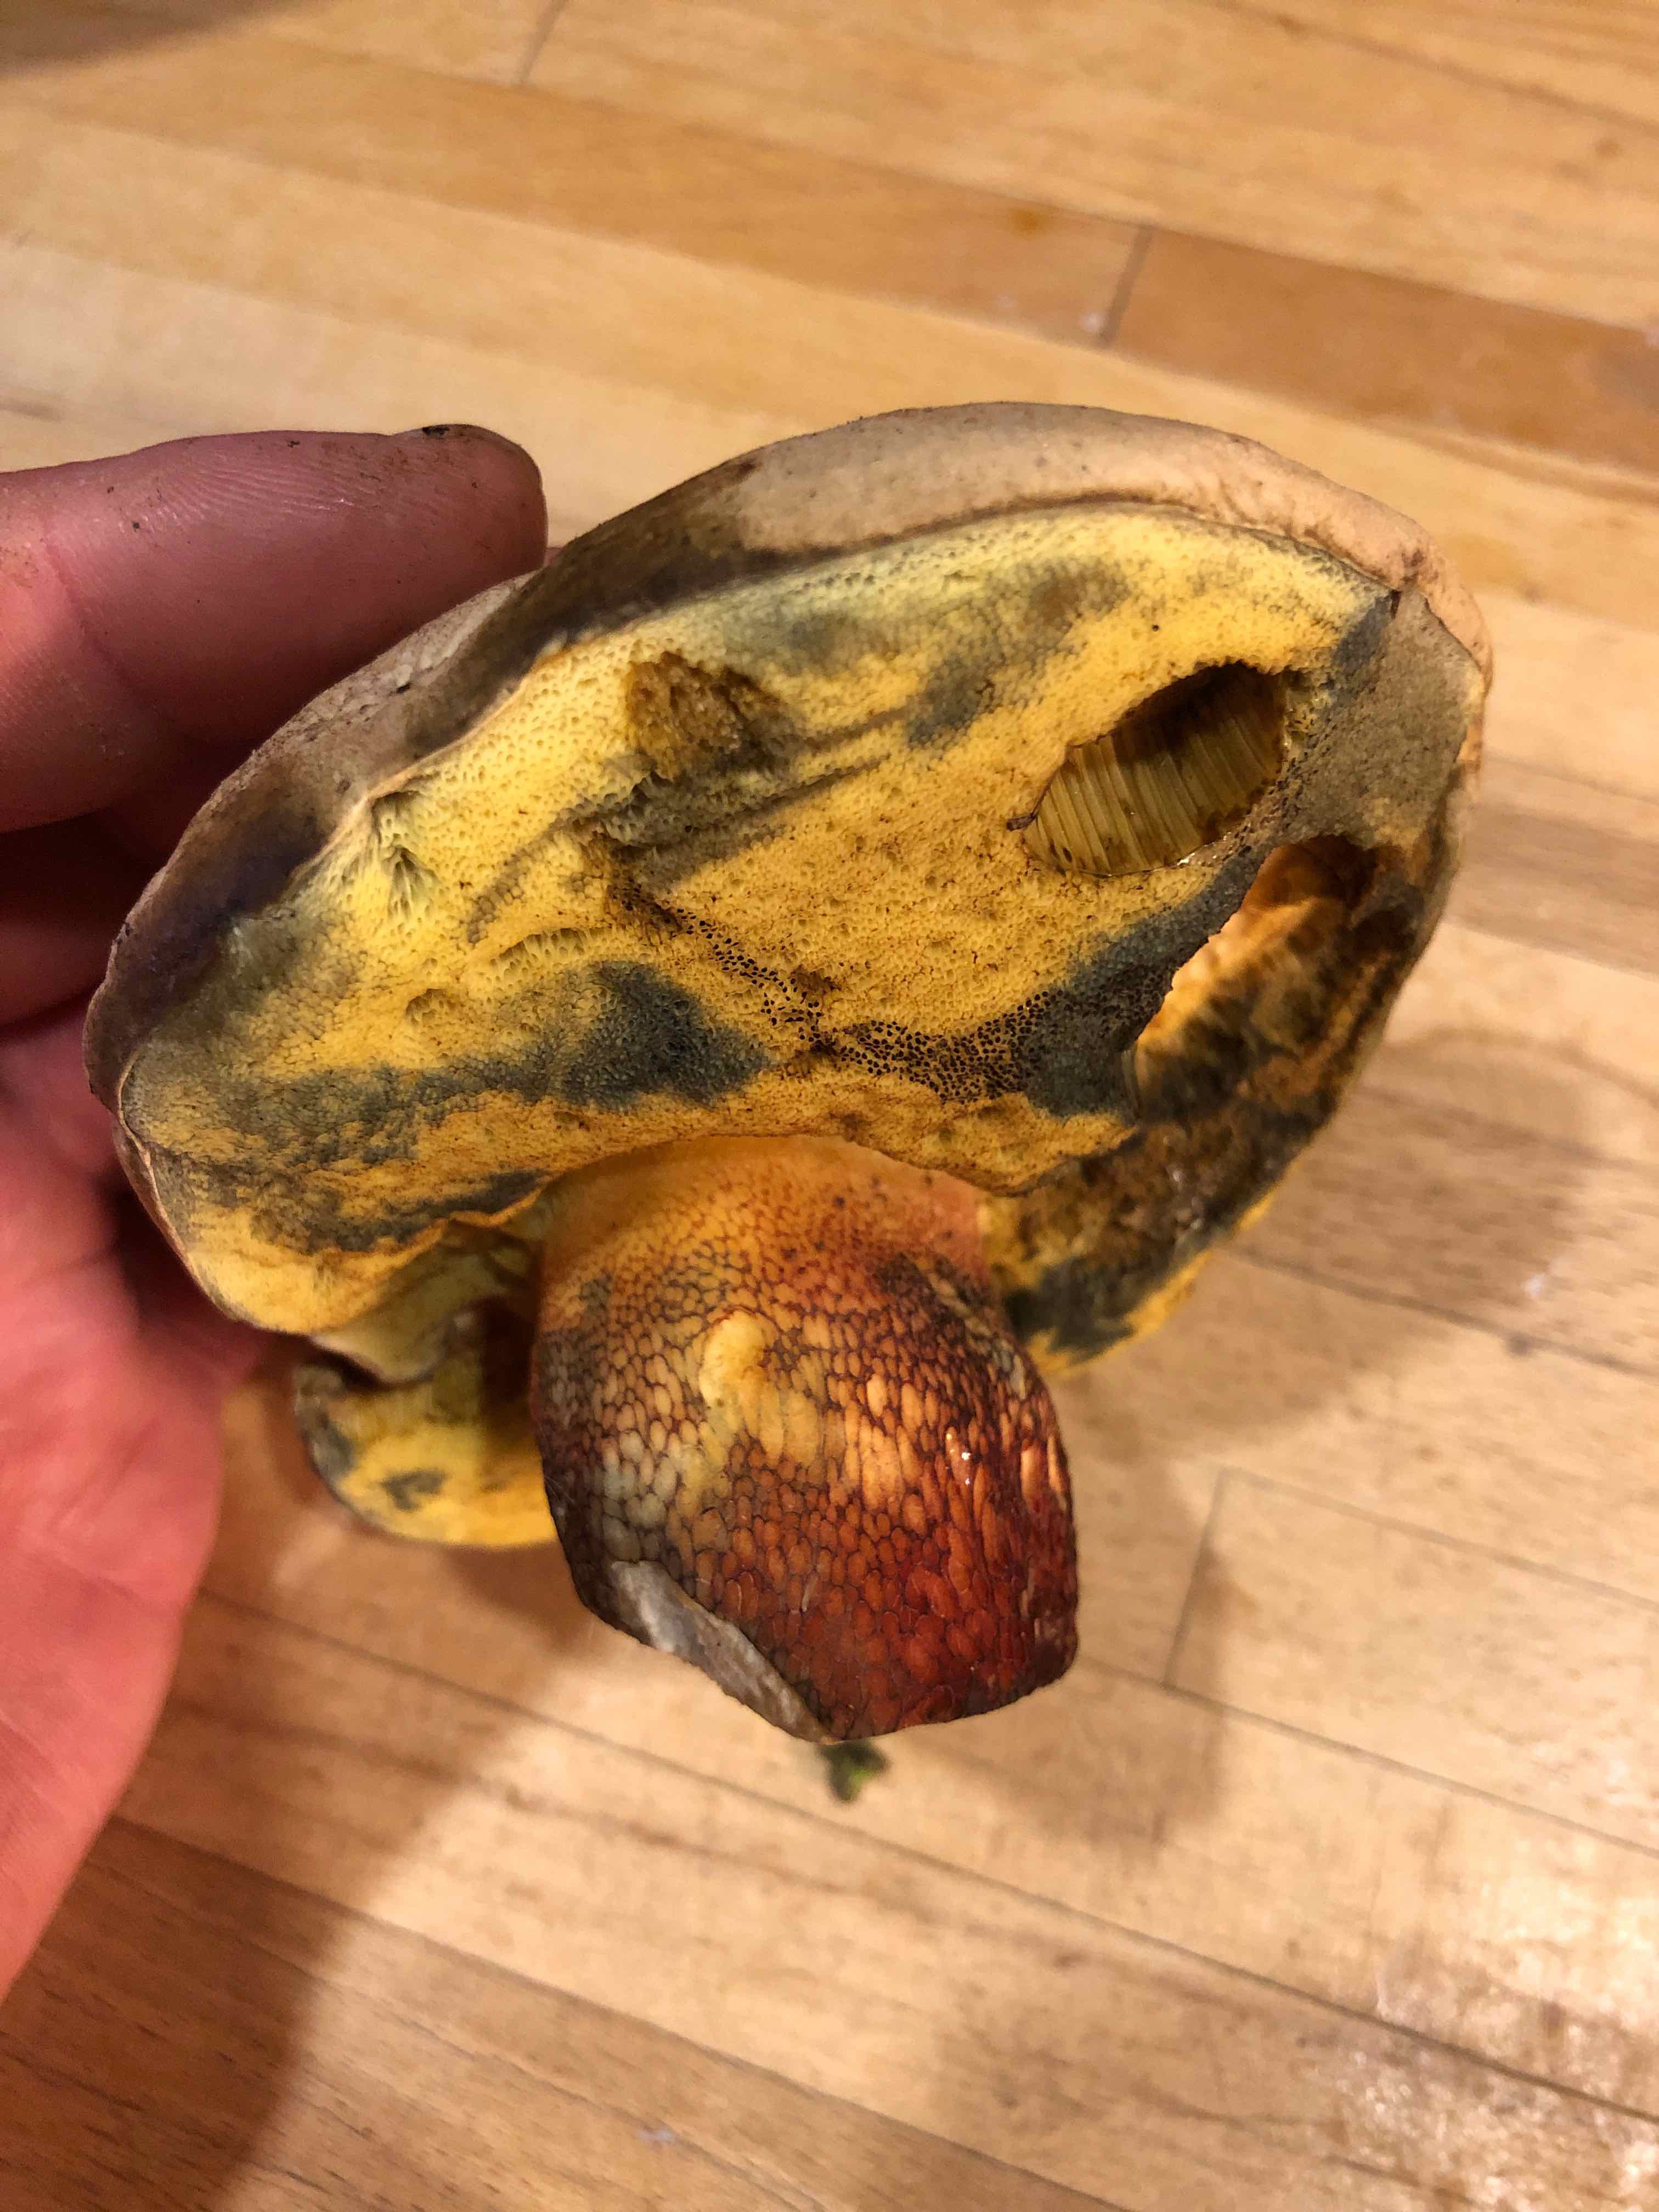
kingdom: Fungi
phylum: Basidiomycota
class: Agaricomycetes
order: Boletales
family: Boletaceae
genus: Caloboletus
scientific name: Caloboletus calopus
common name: skønfodet rørhat
